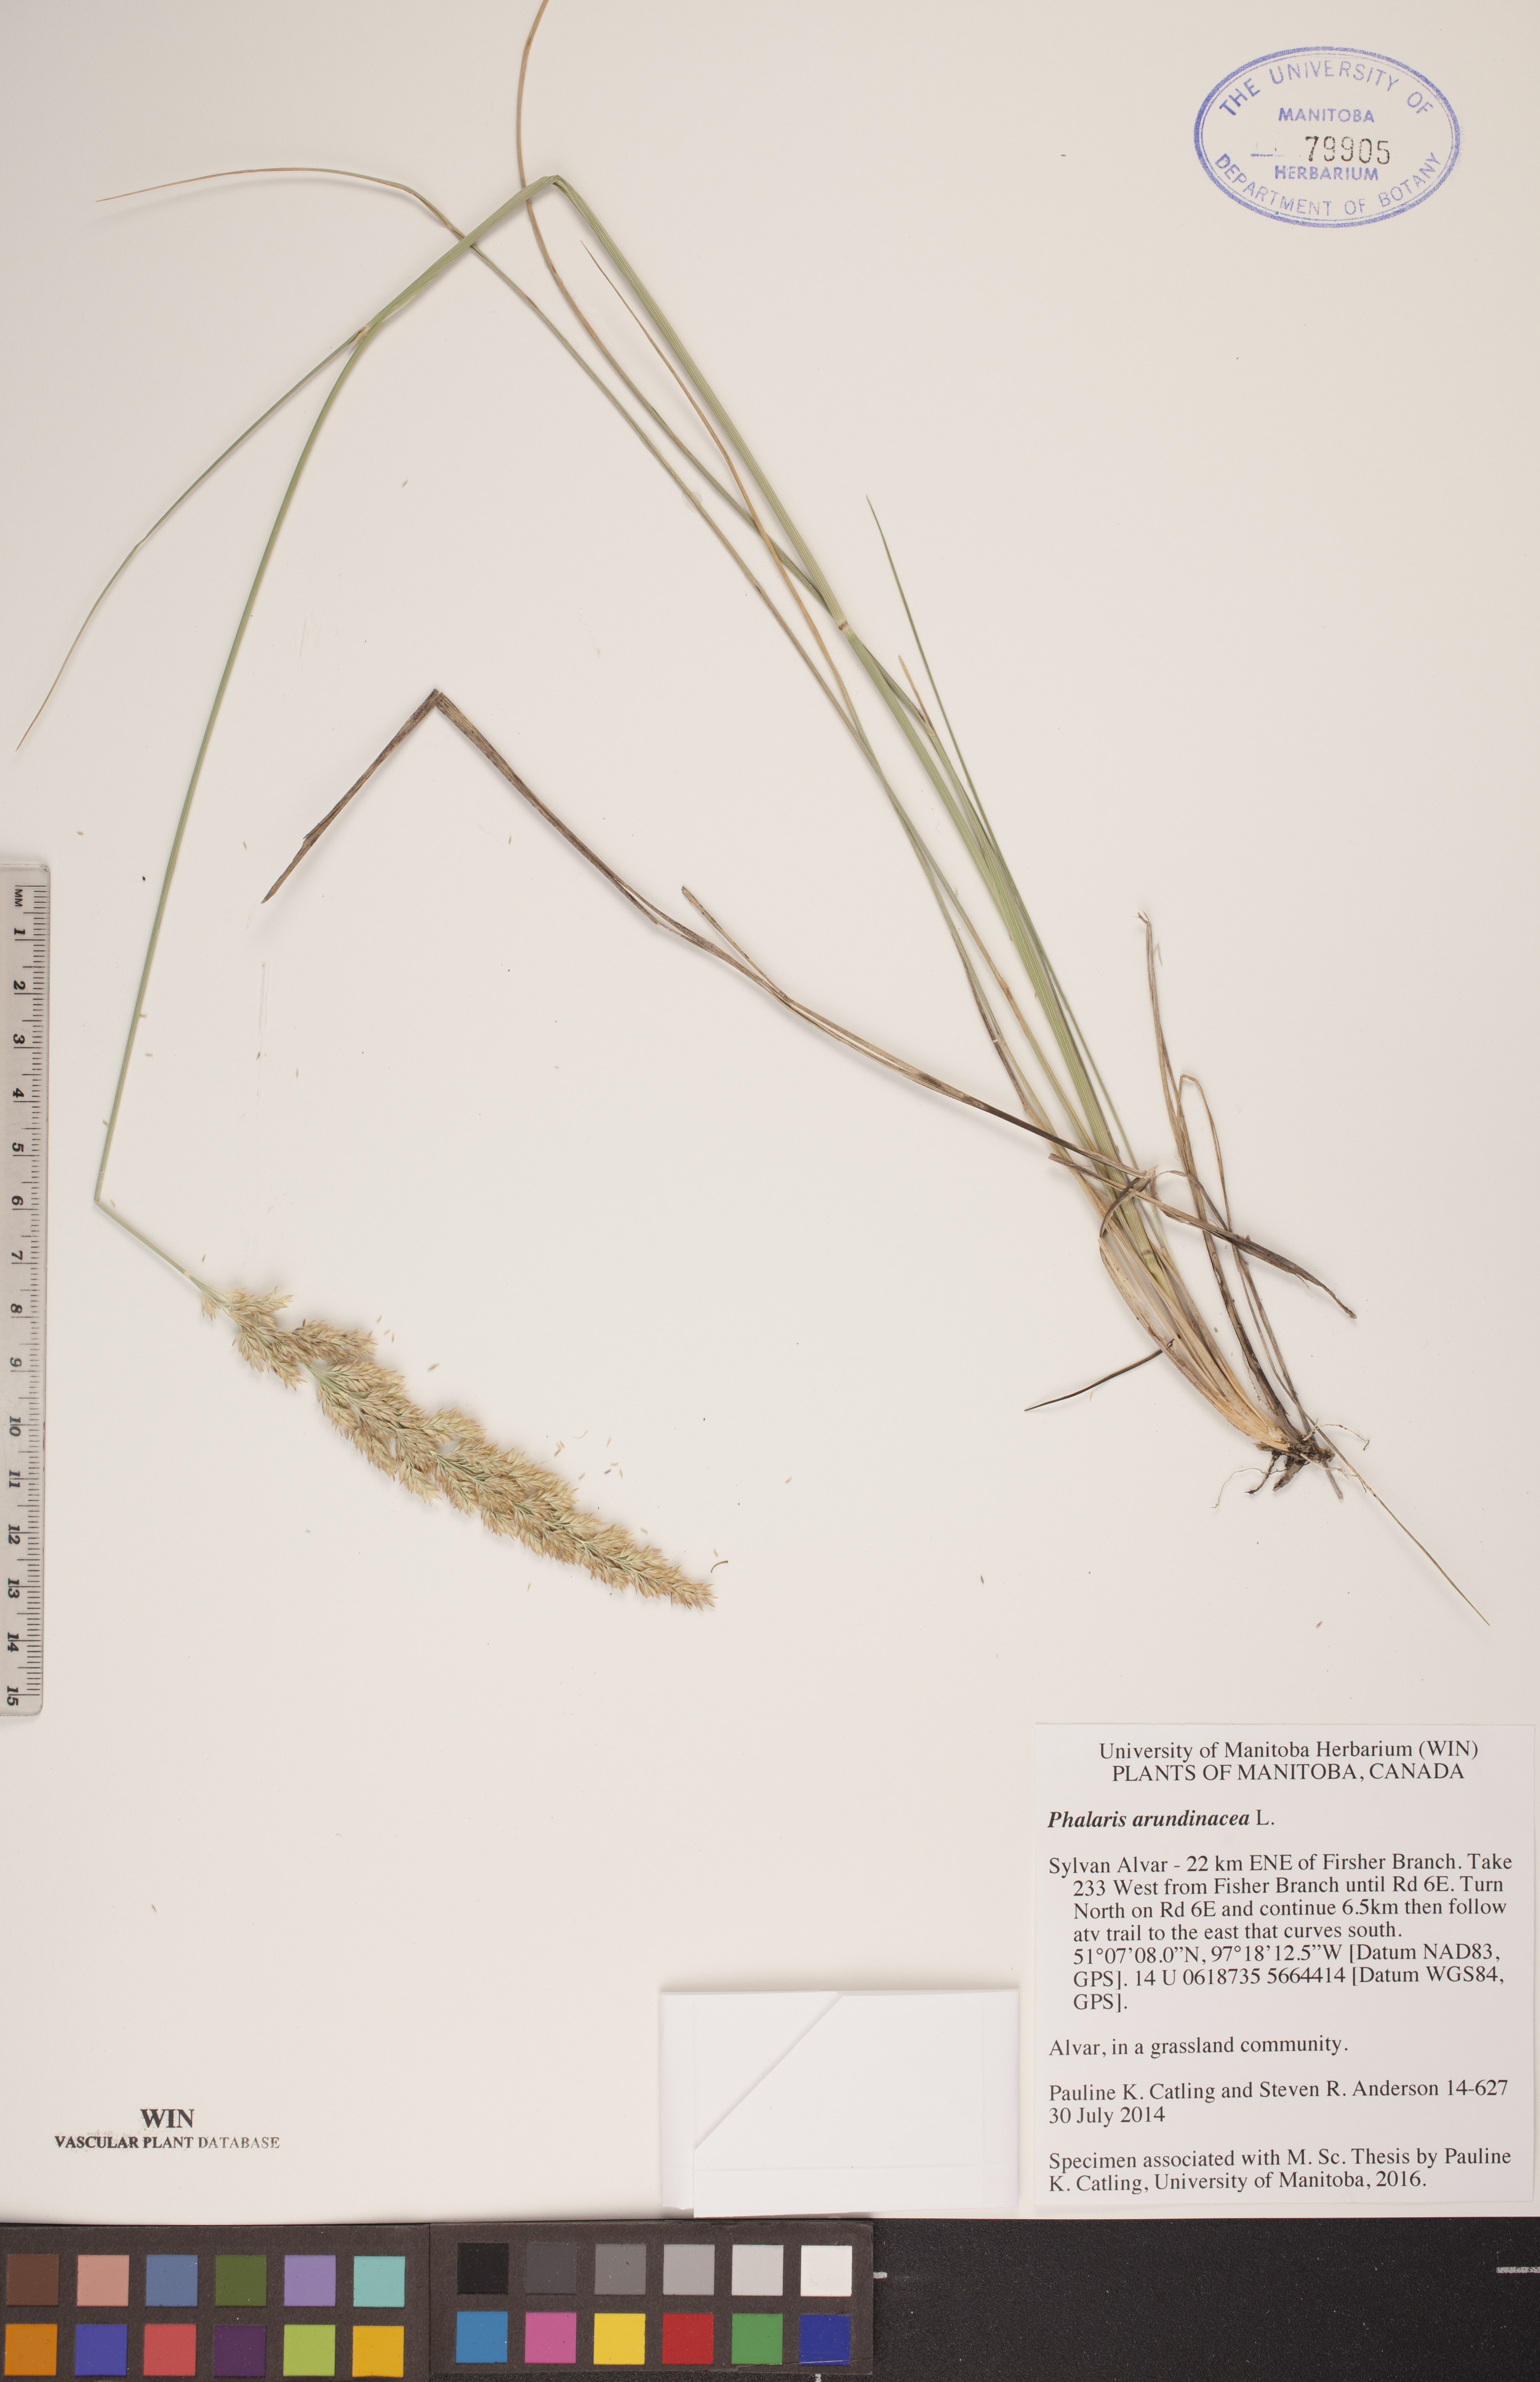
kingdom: Plantae
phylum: Tracheophyta
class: Liliopsida
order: Poales
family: Poaceae
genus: Phalaris
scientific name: Phalaris arundinacea
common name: Reed canary-grass
